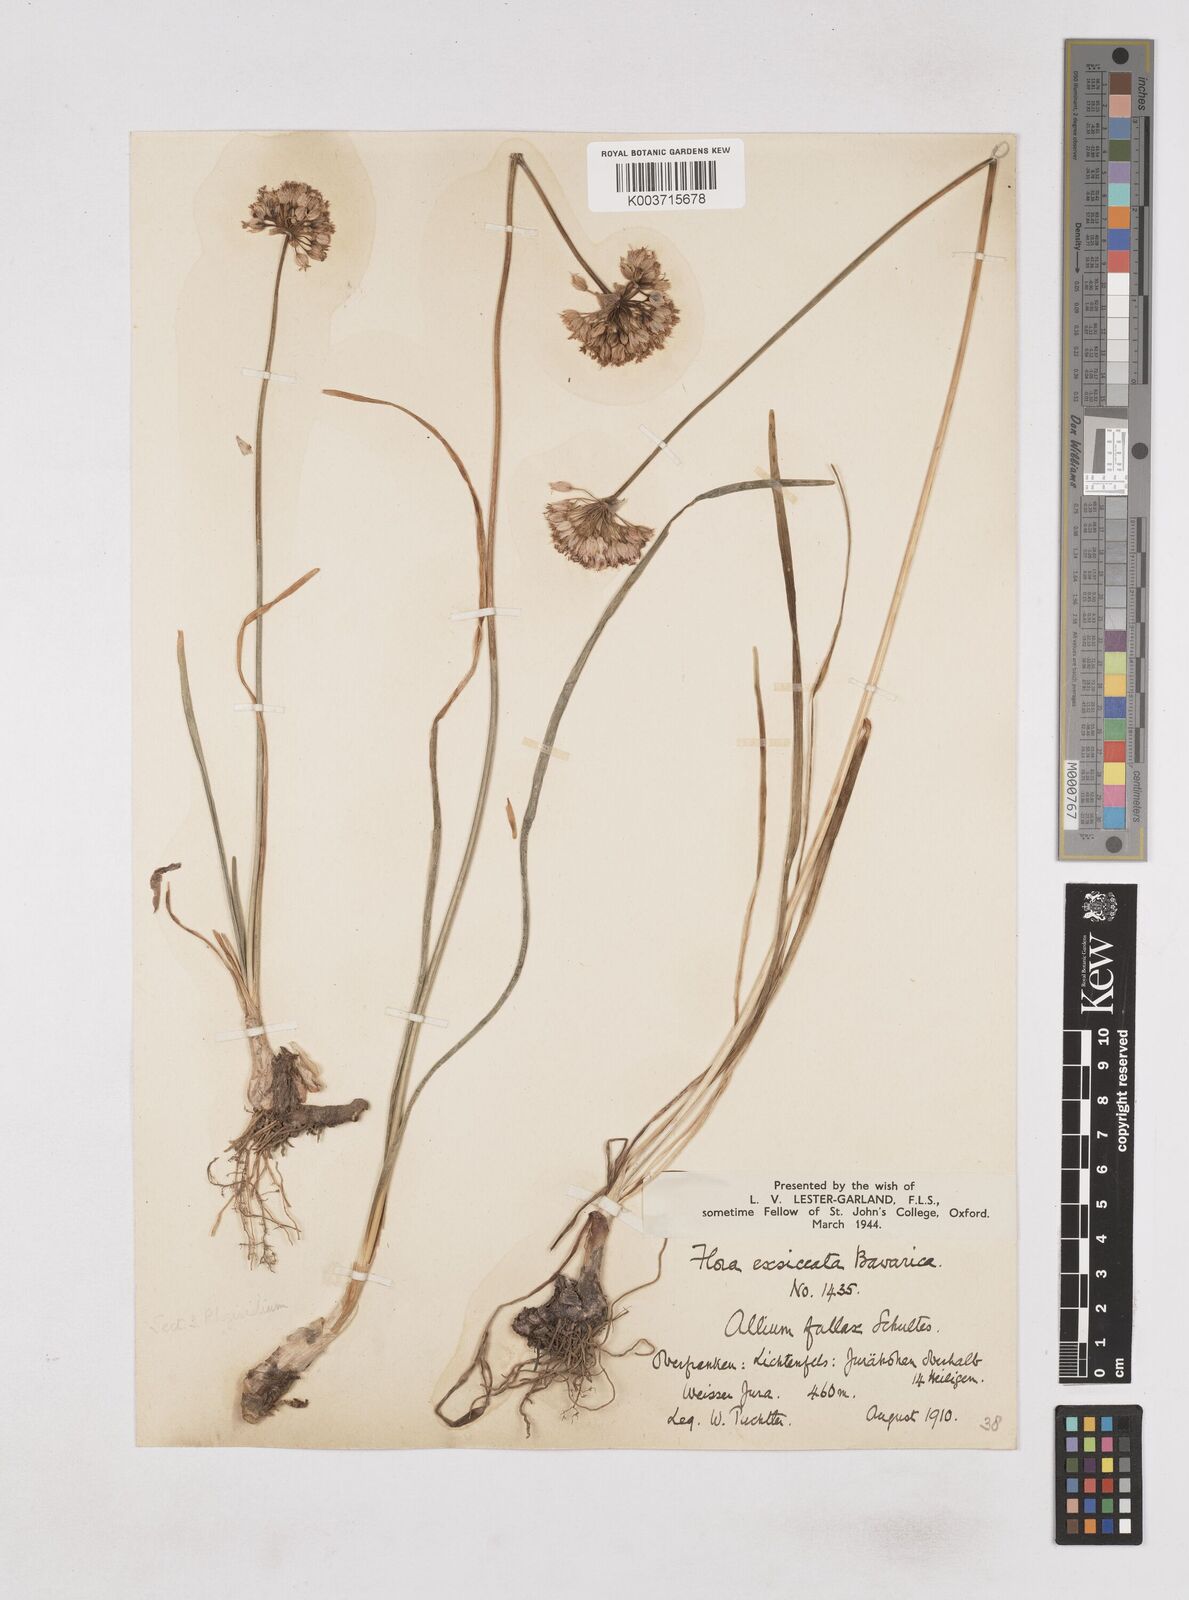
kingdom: Plantae
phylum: Tracheophyta
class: Liliopsida
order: Asparagales
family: Amaryllidaceae
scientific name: Amaryllidaceae
